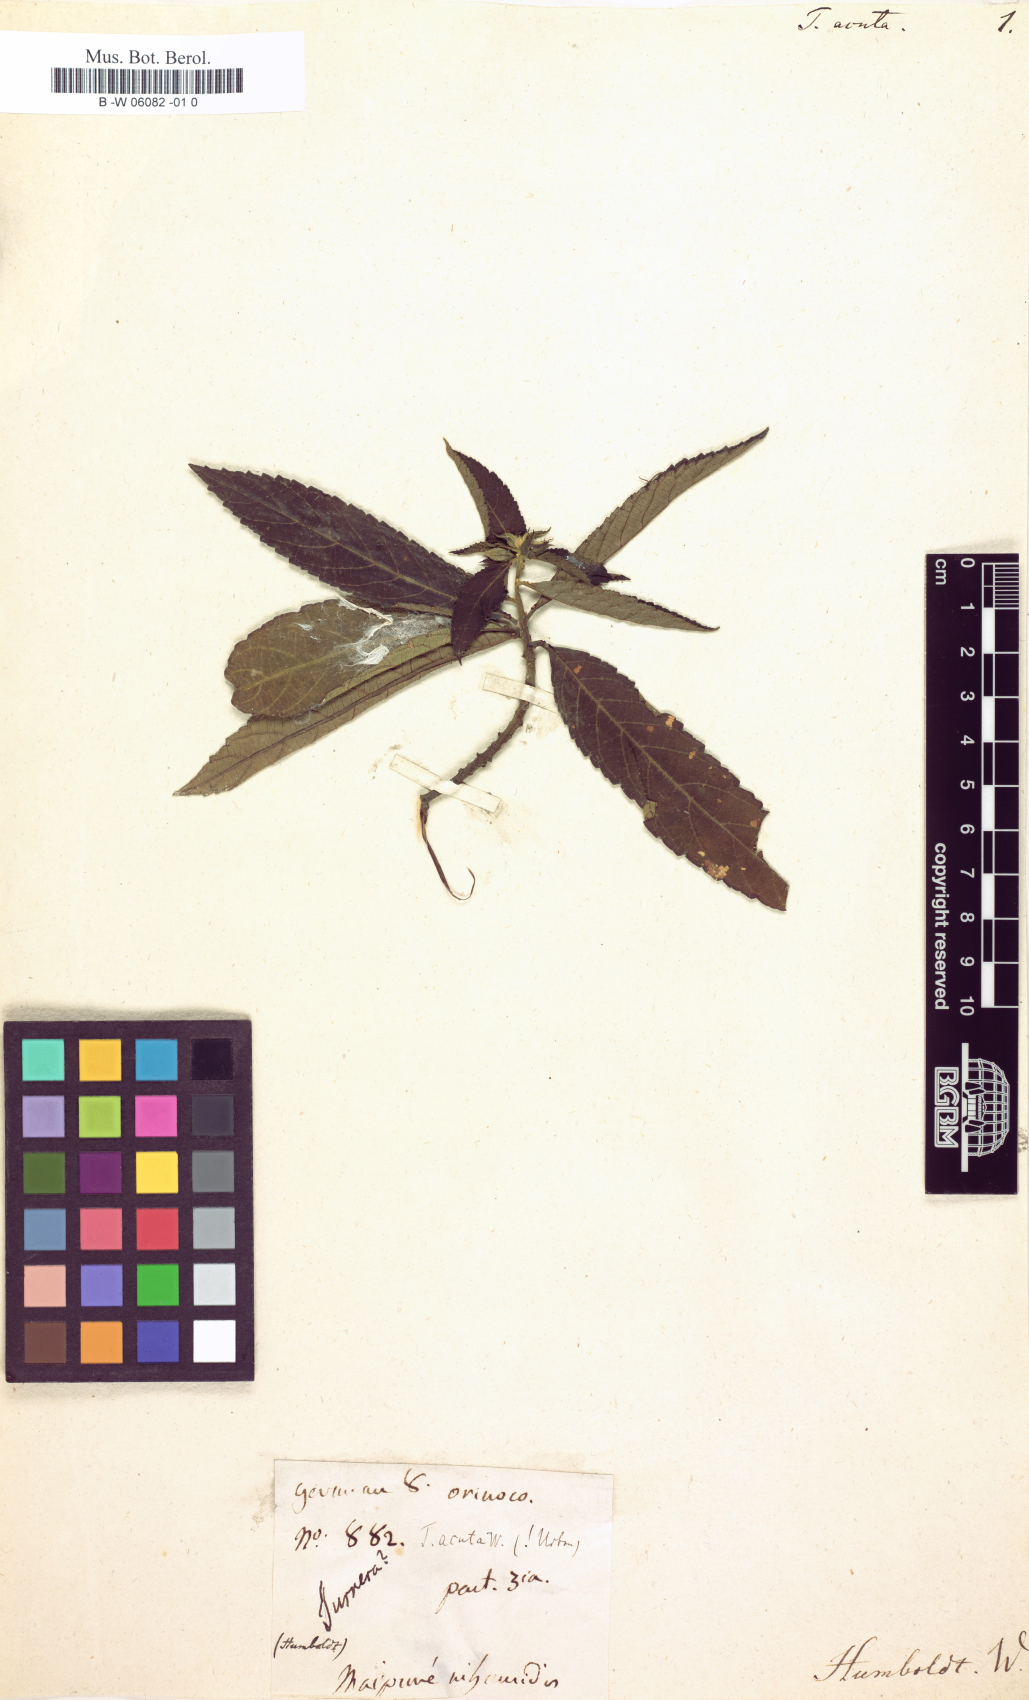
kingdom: Plantae
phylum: Tracheophyta
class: Magnoliopsida
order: Malpighiales
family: Turneraceae
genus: Turnera
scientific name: Turnera triglandulosa
